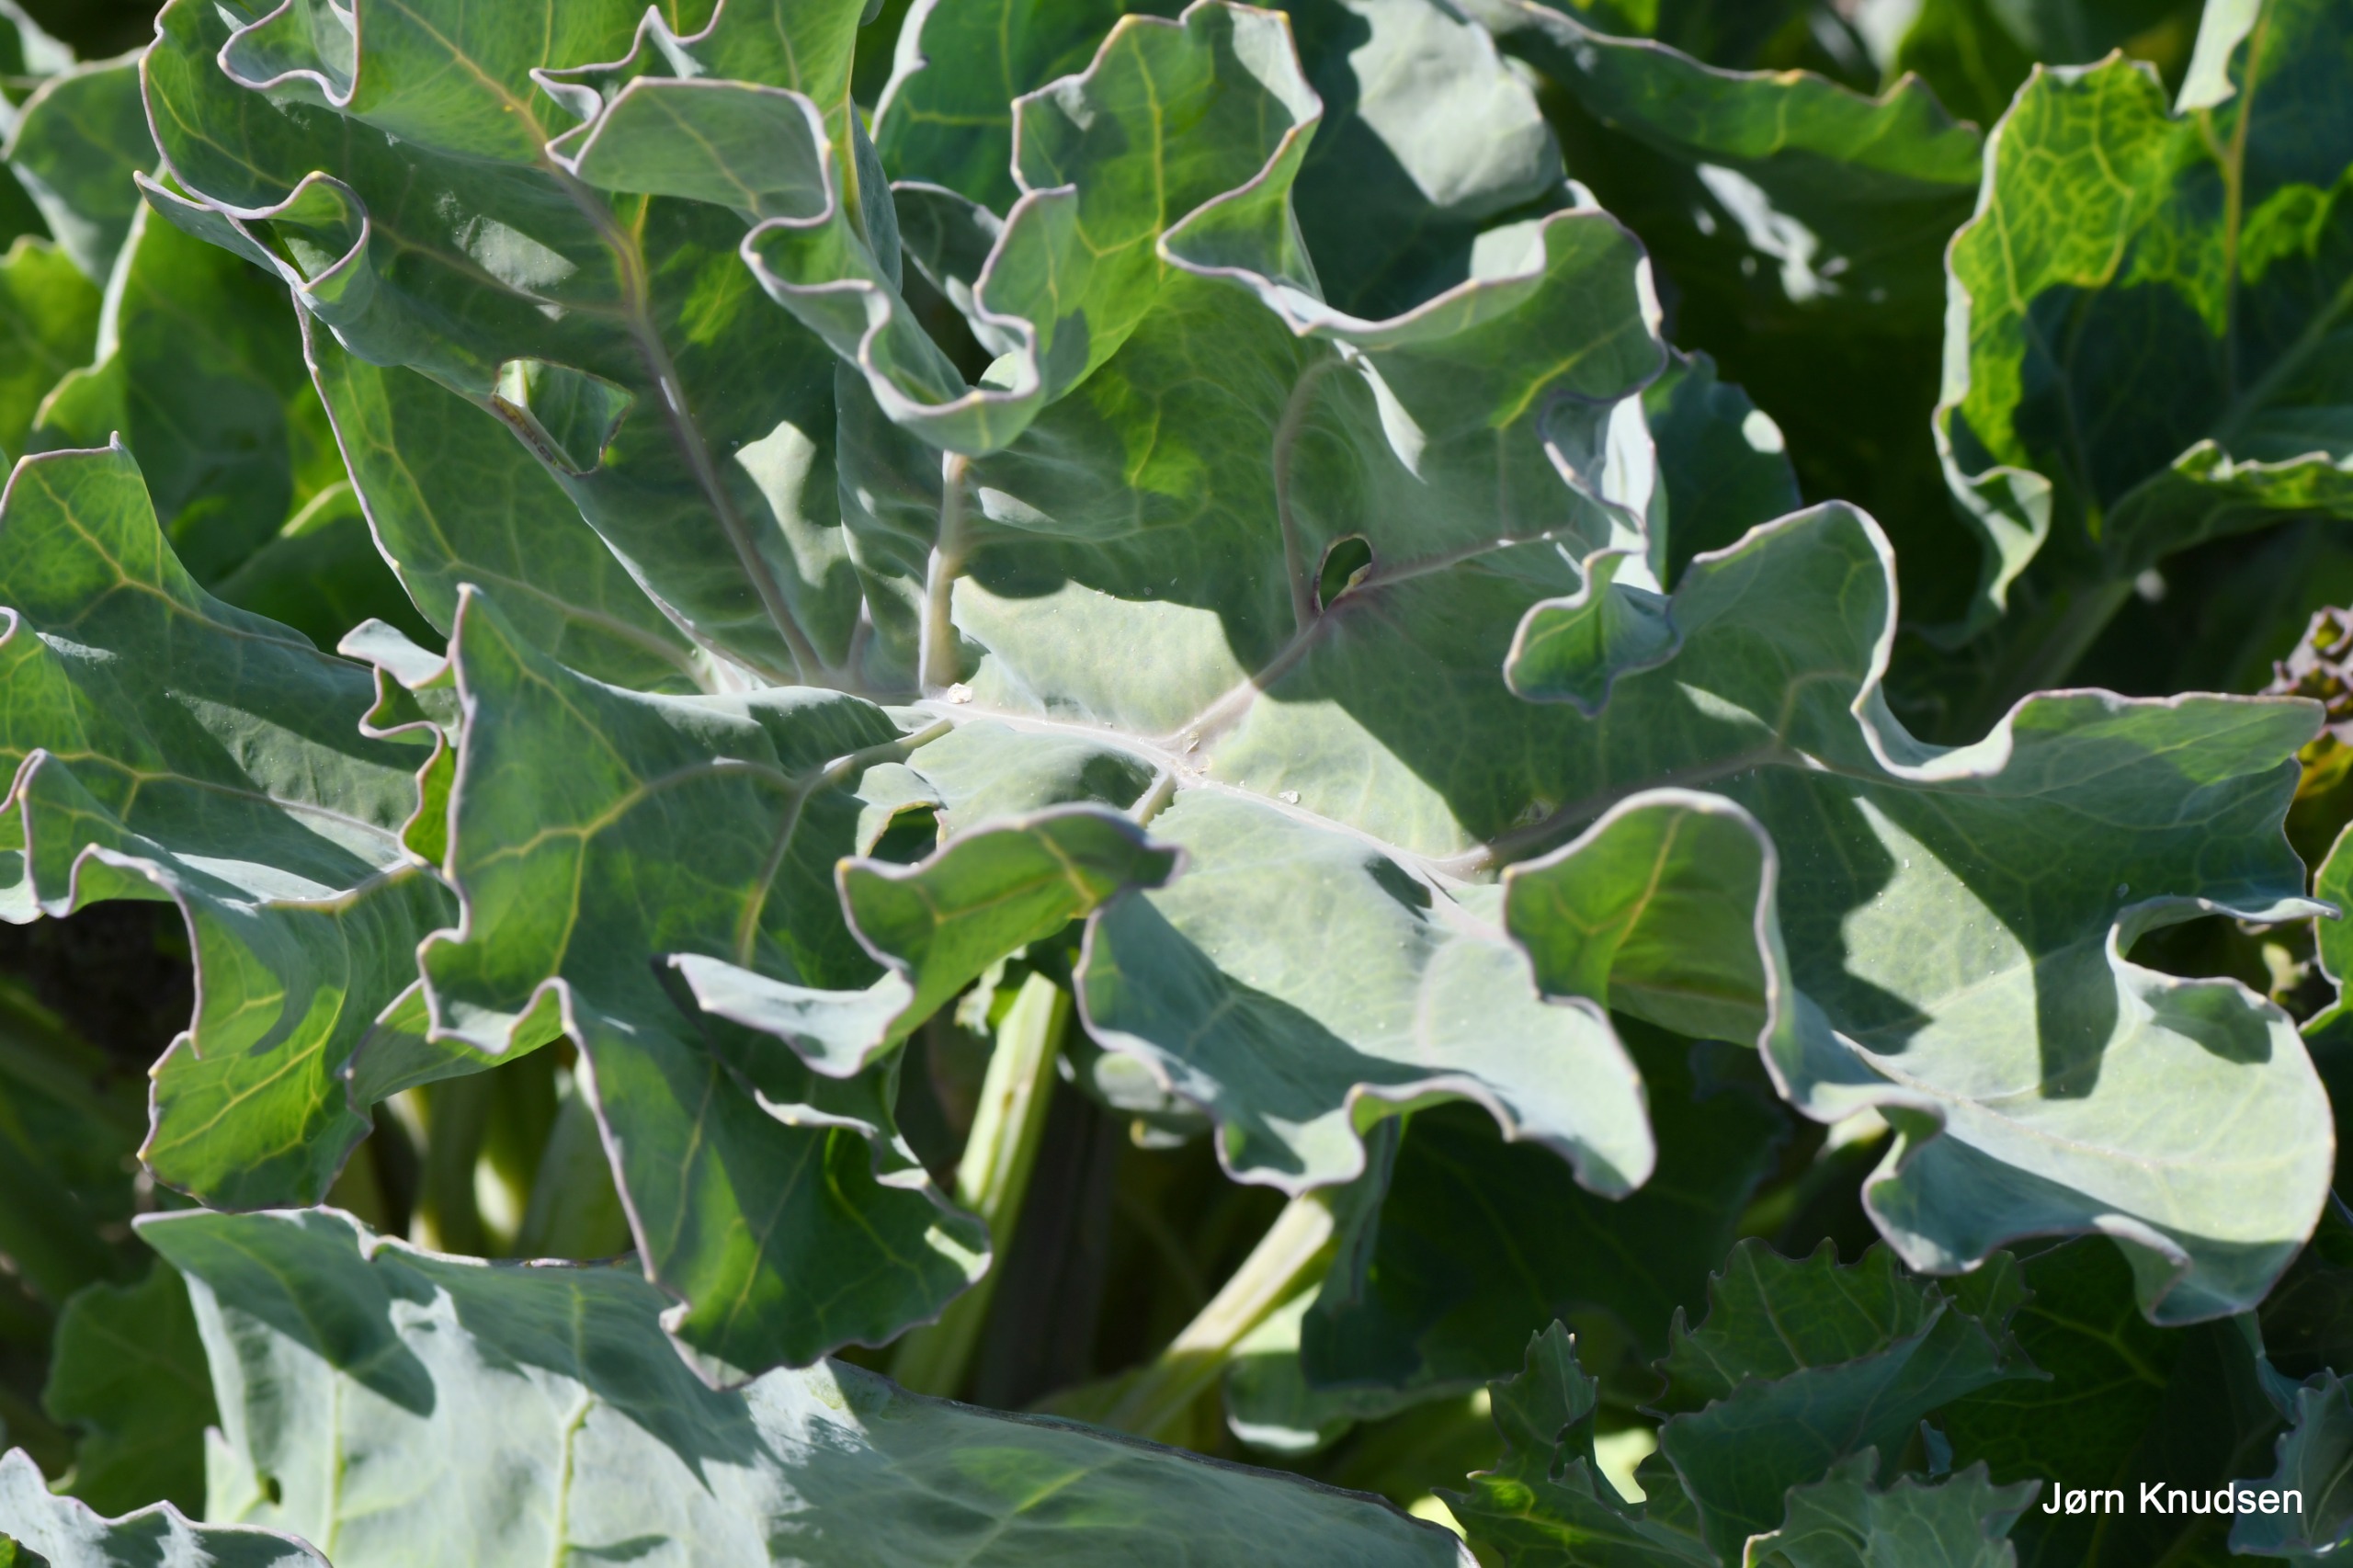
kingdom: Plantae
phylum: Tracheophyta
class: Magnoliopsida
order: Brassicales
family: Brassicaceae
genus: Crambe
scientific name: Crambe maritima
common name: Strandkål
